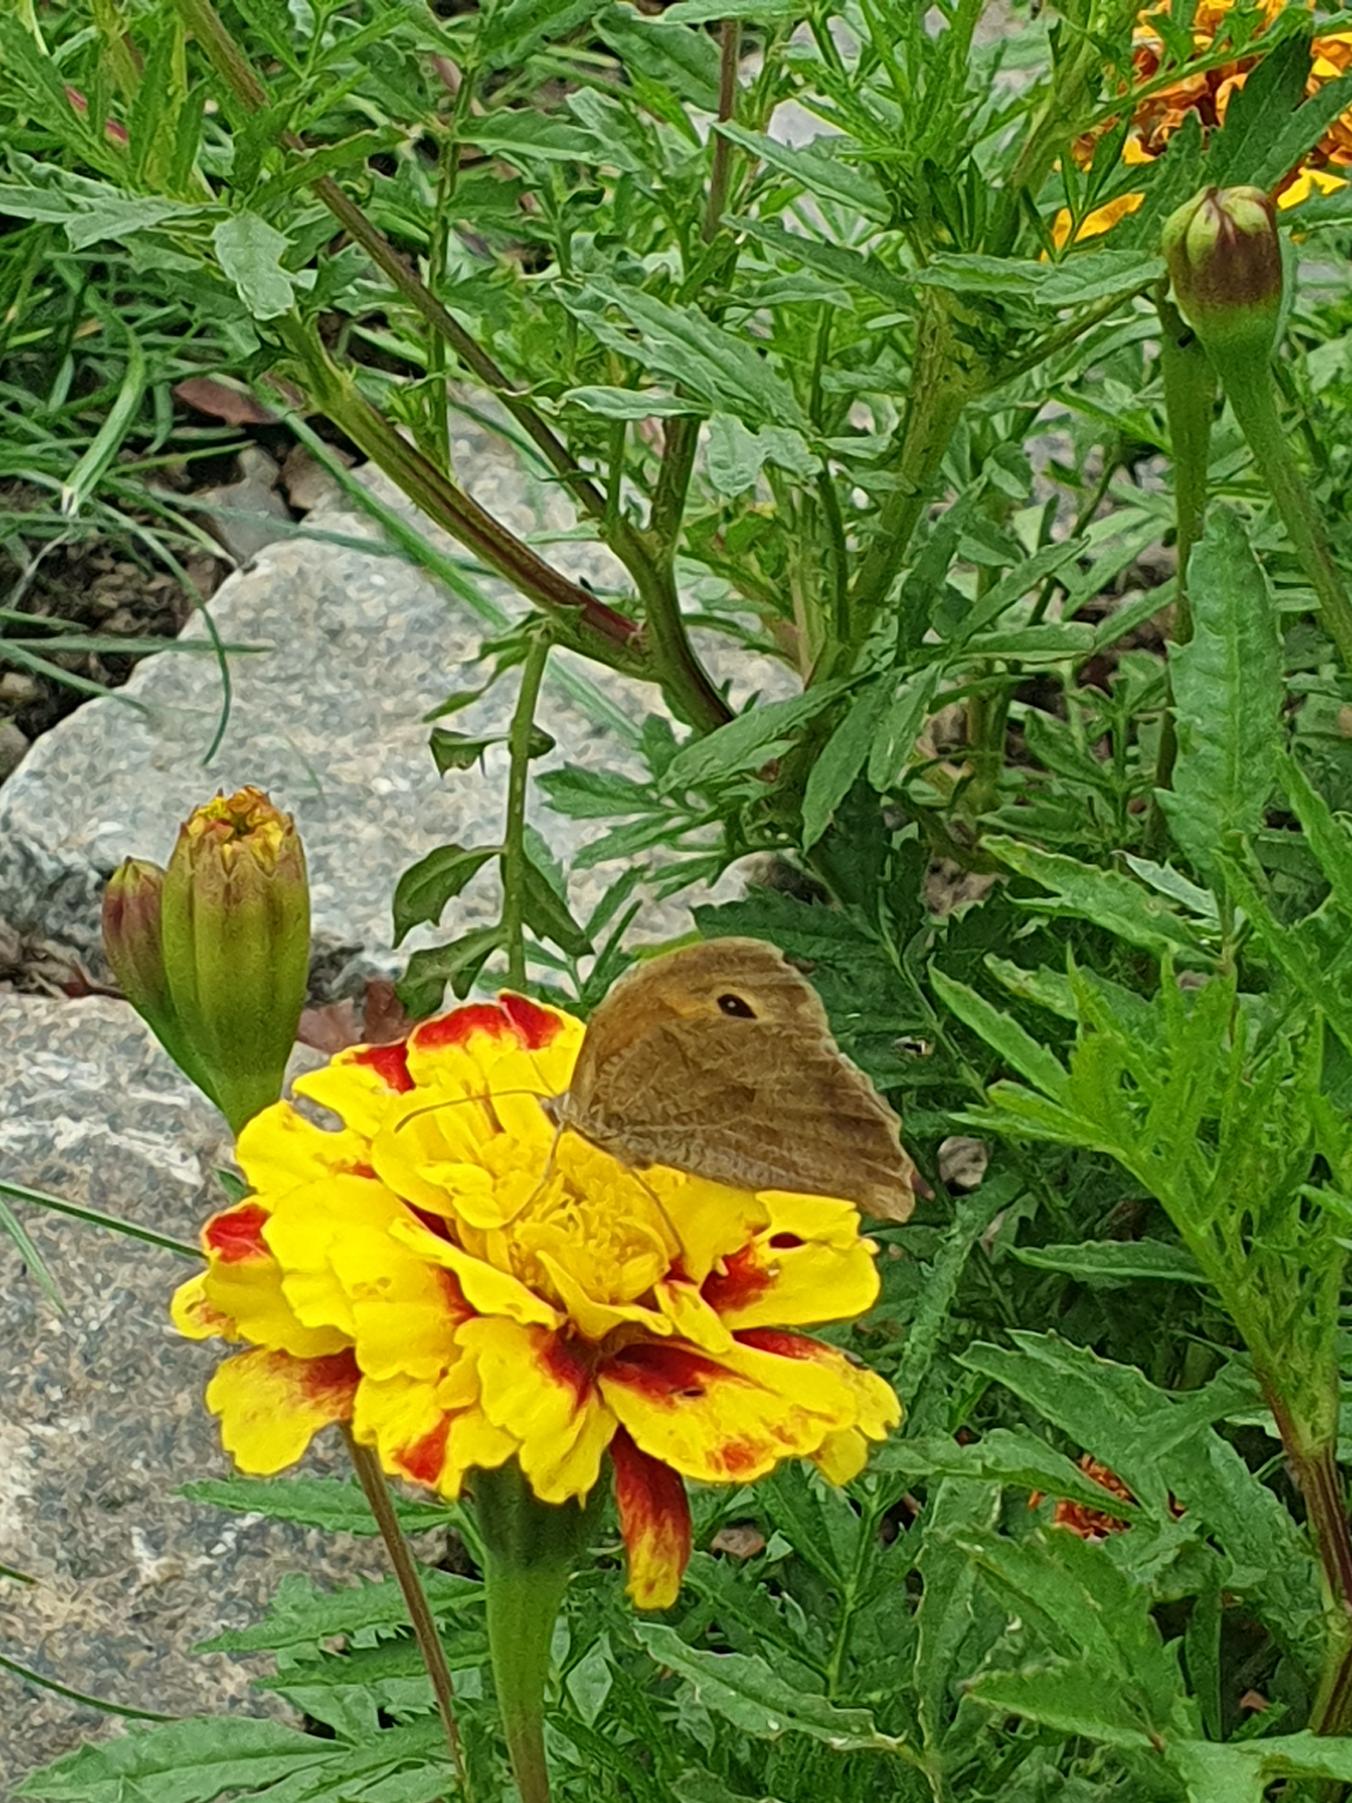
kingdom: Animalia
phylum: Arthropoda
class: Insecta
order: Lepidoptera
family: Nymphalidae
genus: Maniola
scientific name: Maniola jurtina
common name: Græsrandøje
